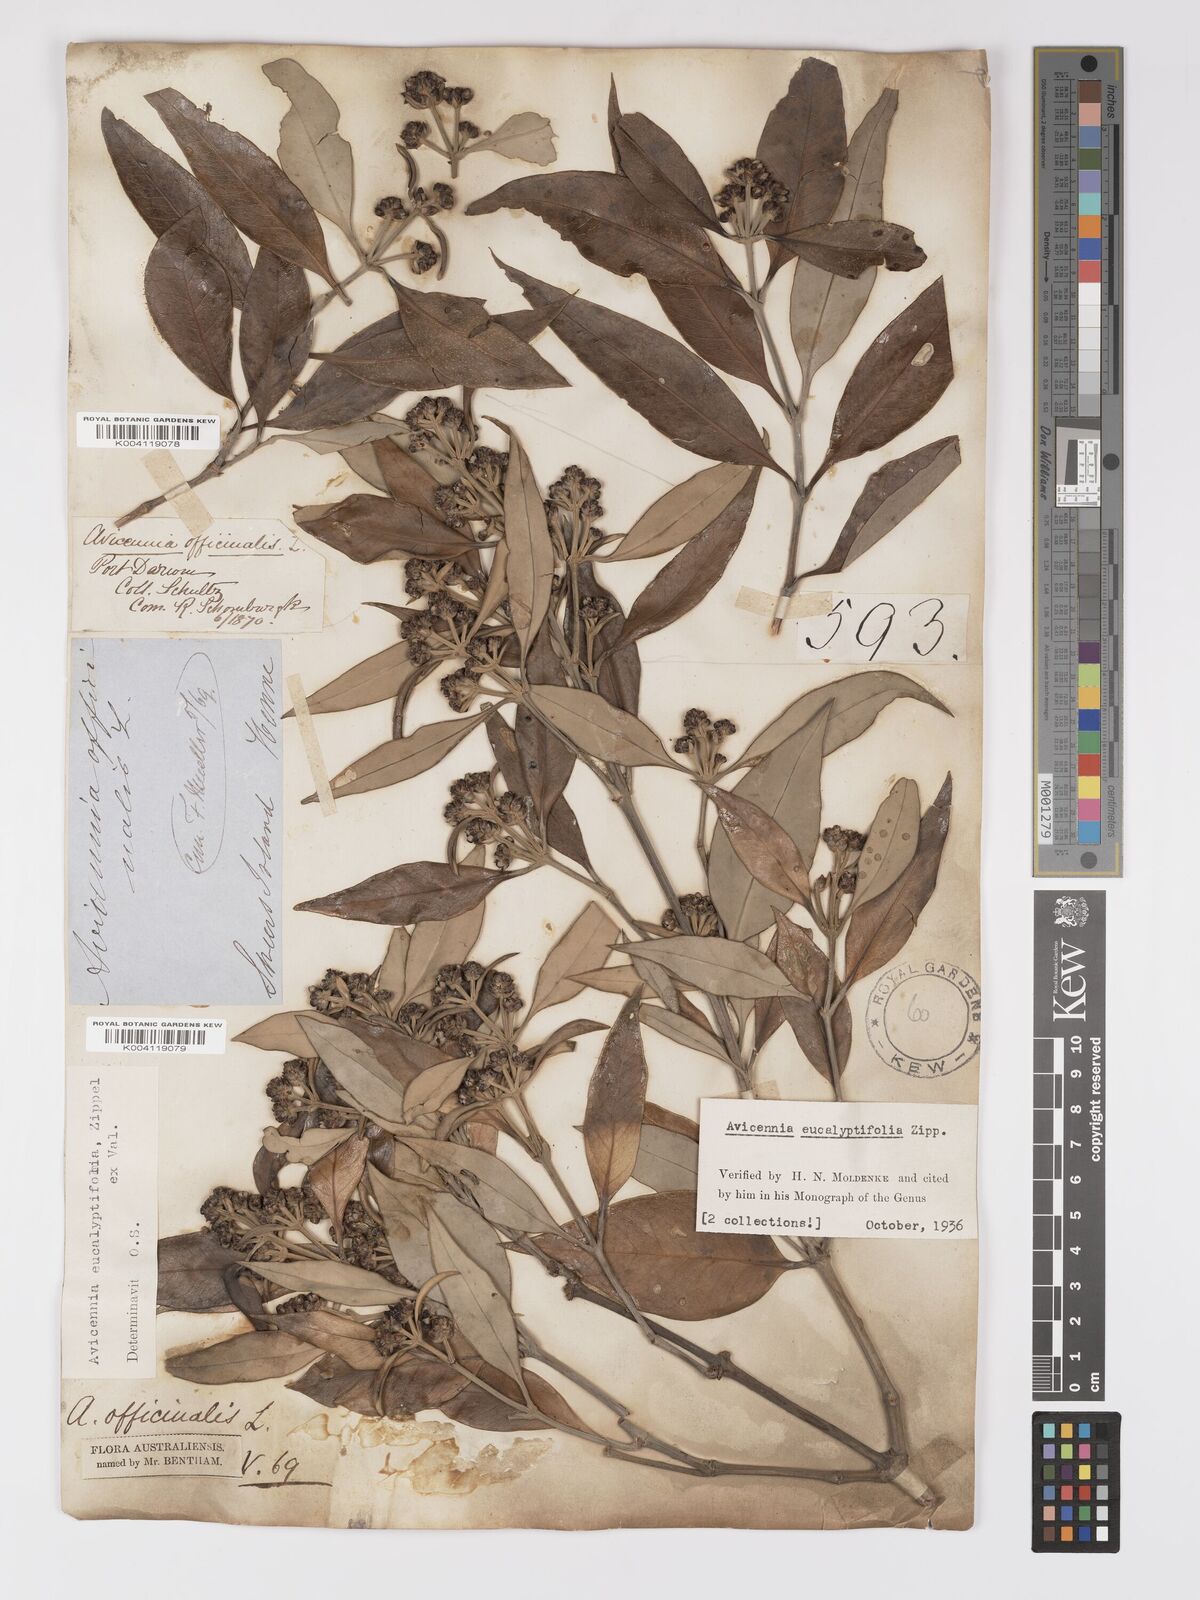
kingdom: Plantae
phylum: Tracheophyta
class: Magnoliopsida
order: Lamiales
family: Acanthaceae
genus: Avicennia
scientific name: Avicennia marina
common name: Gray mangrove
